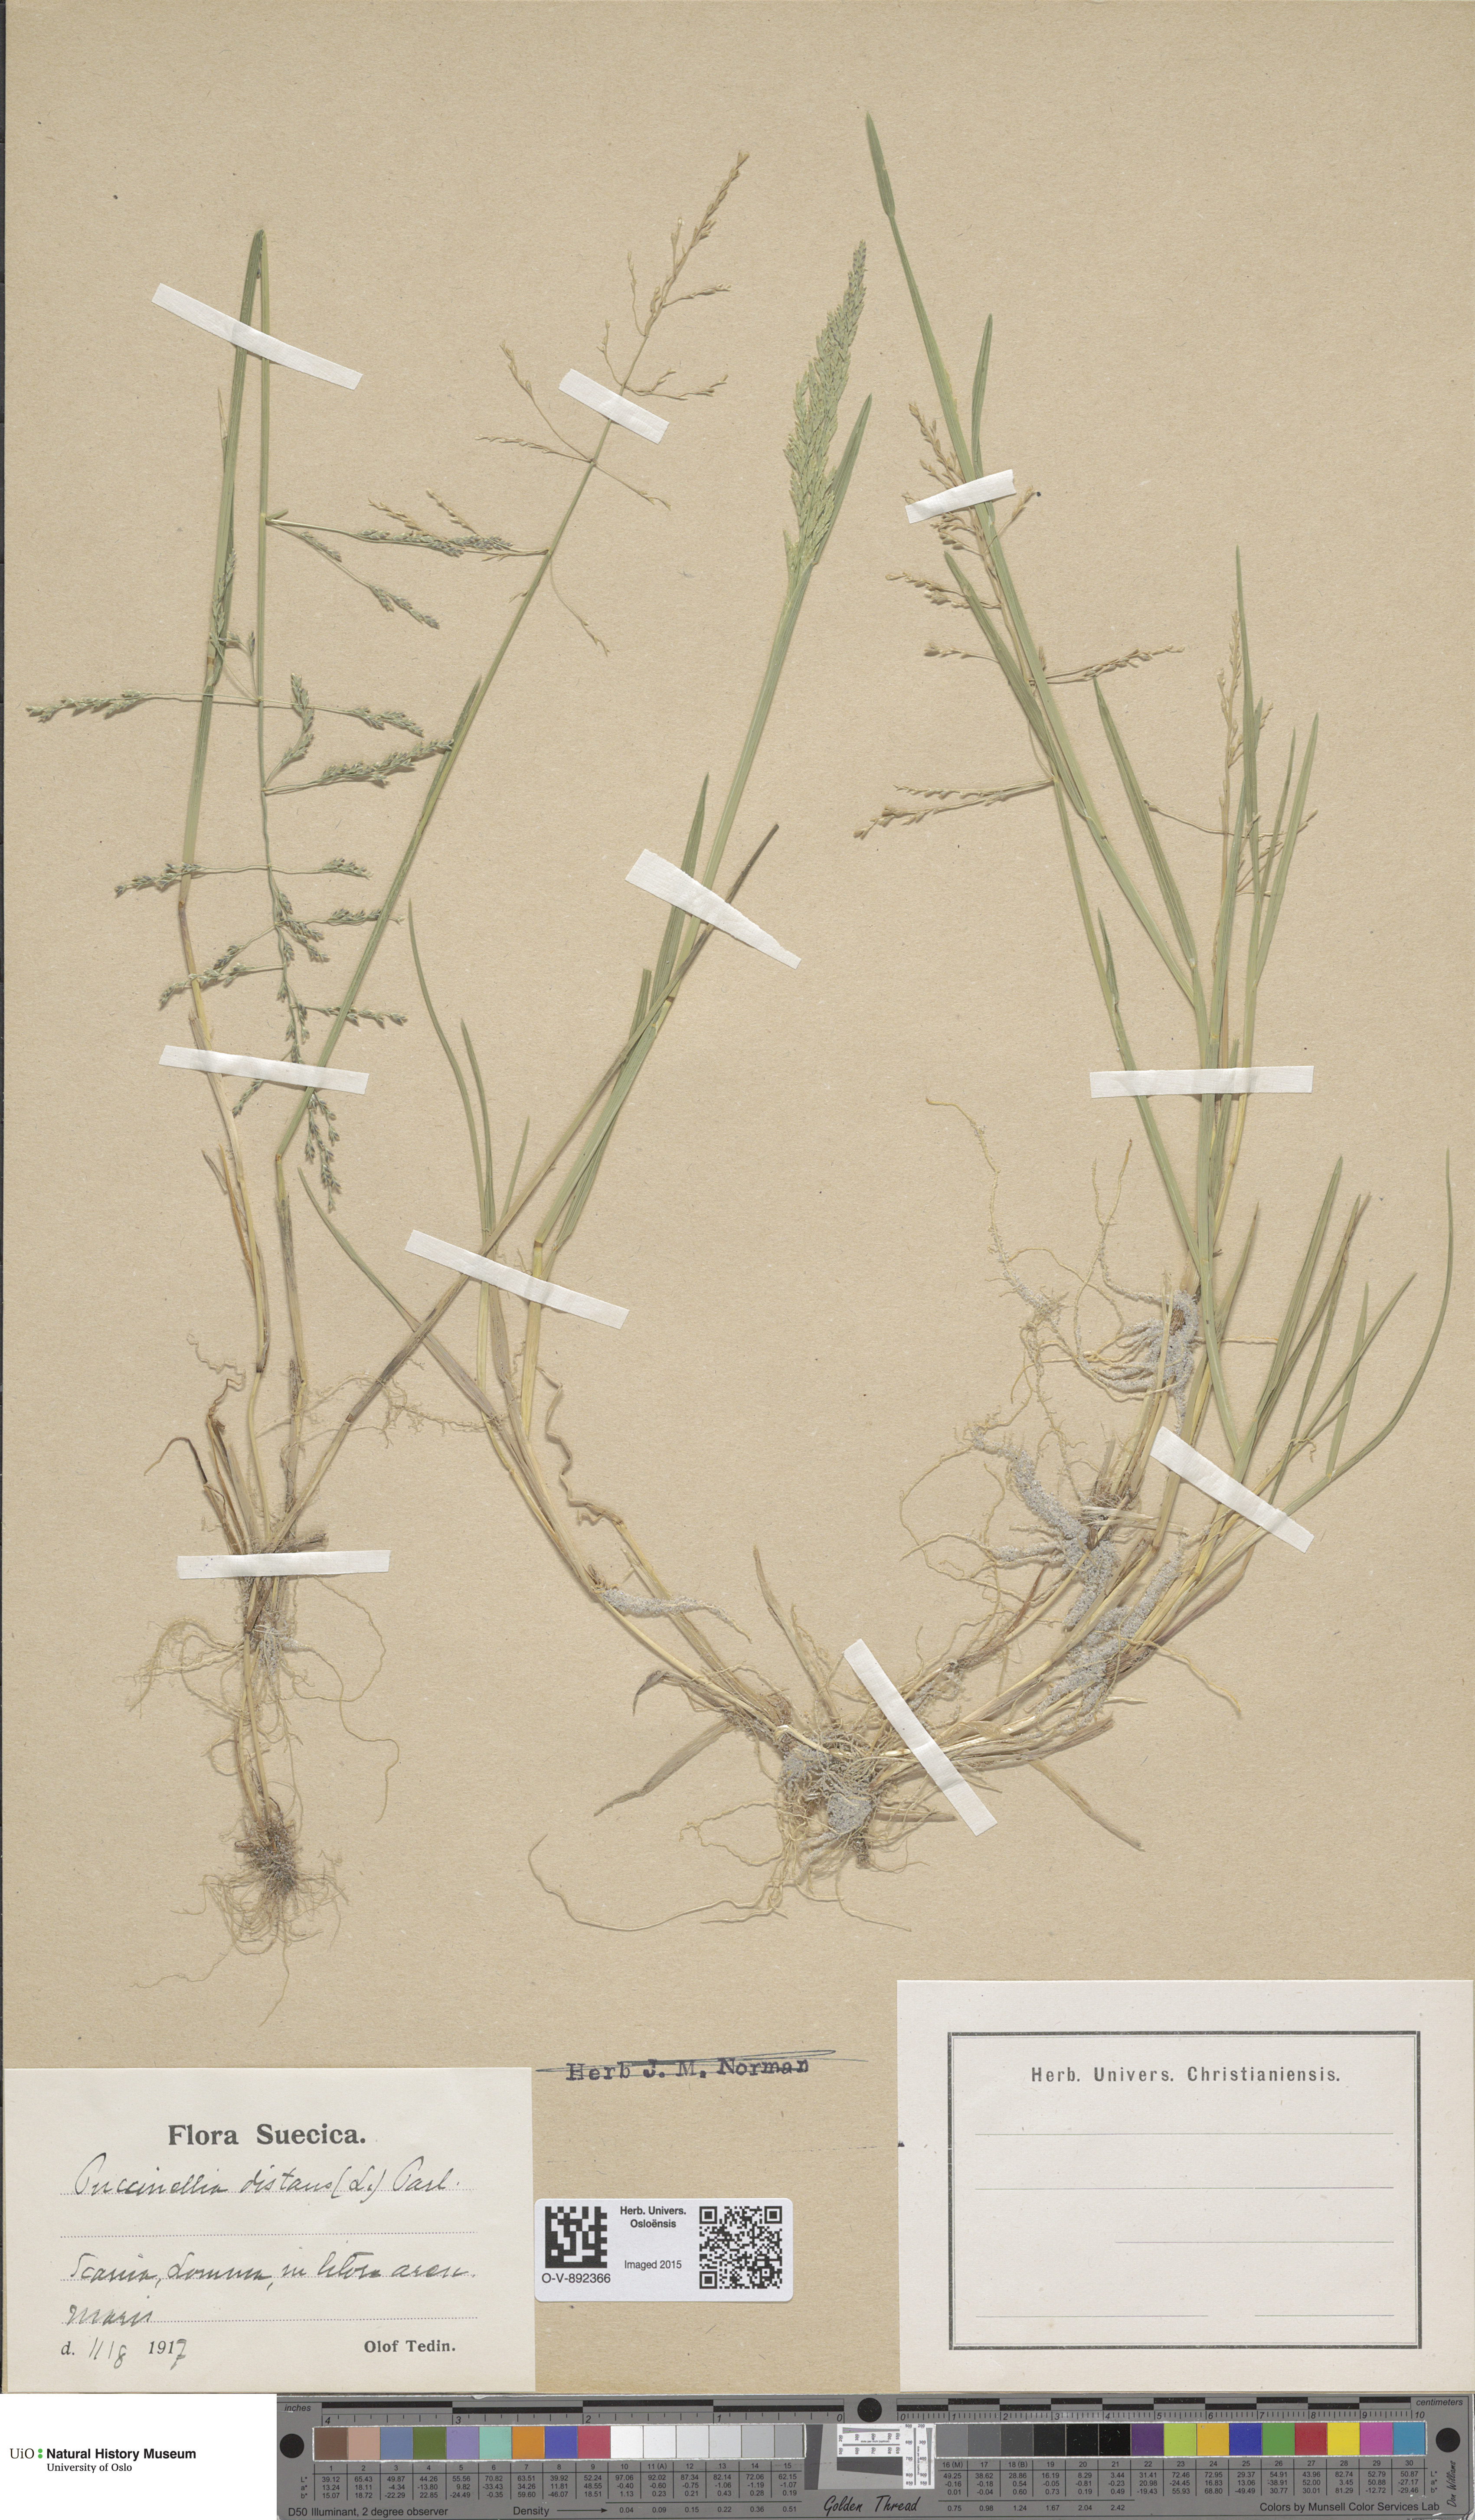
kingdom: Plantae
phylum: Tracheophyta
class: Liliopsida
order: Poales
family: Poaceae
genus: Puccinellia
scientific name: Puccinellia distans
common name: Weeping alkaligrass
